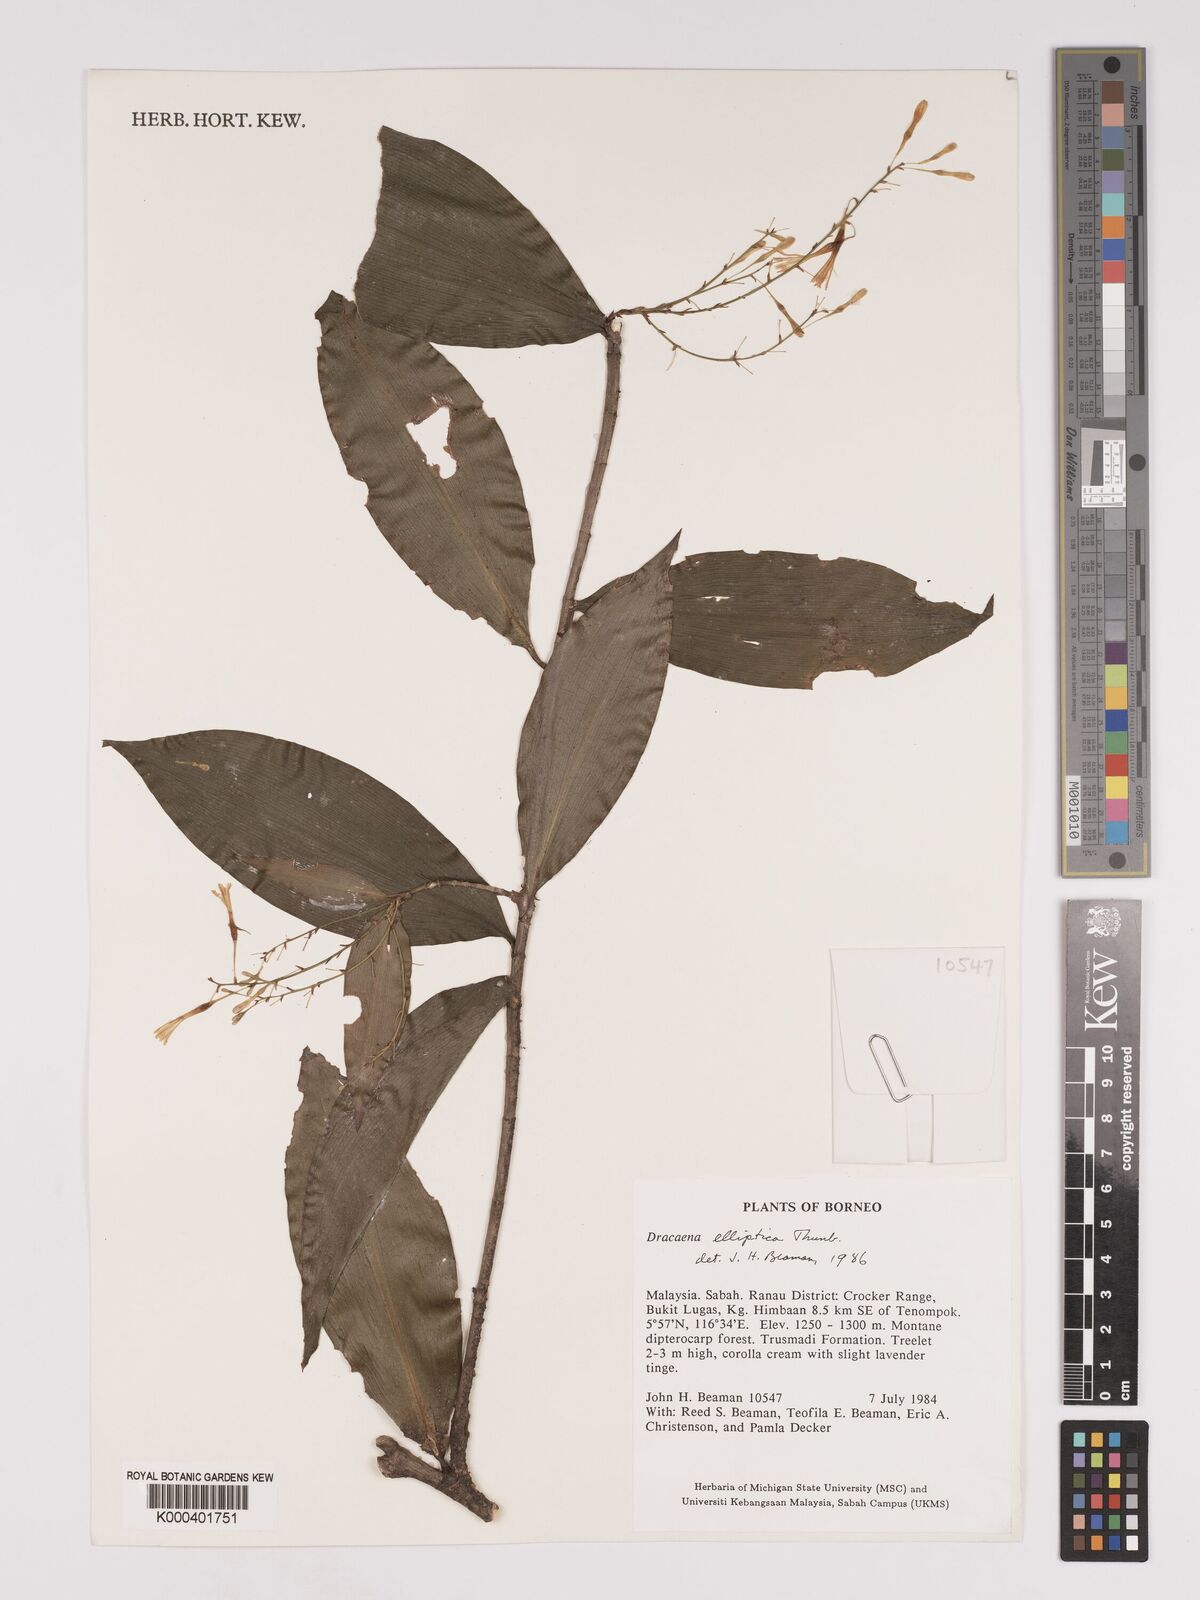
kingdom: Plantae
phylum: Tracheophyta
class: Liliopsida
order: Asparagales
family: Asparagaceae
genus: Dracaena
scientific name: Dracaena elliptica
